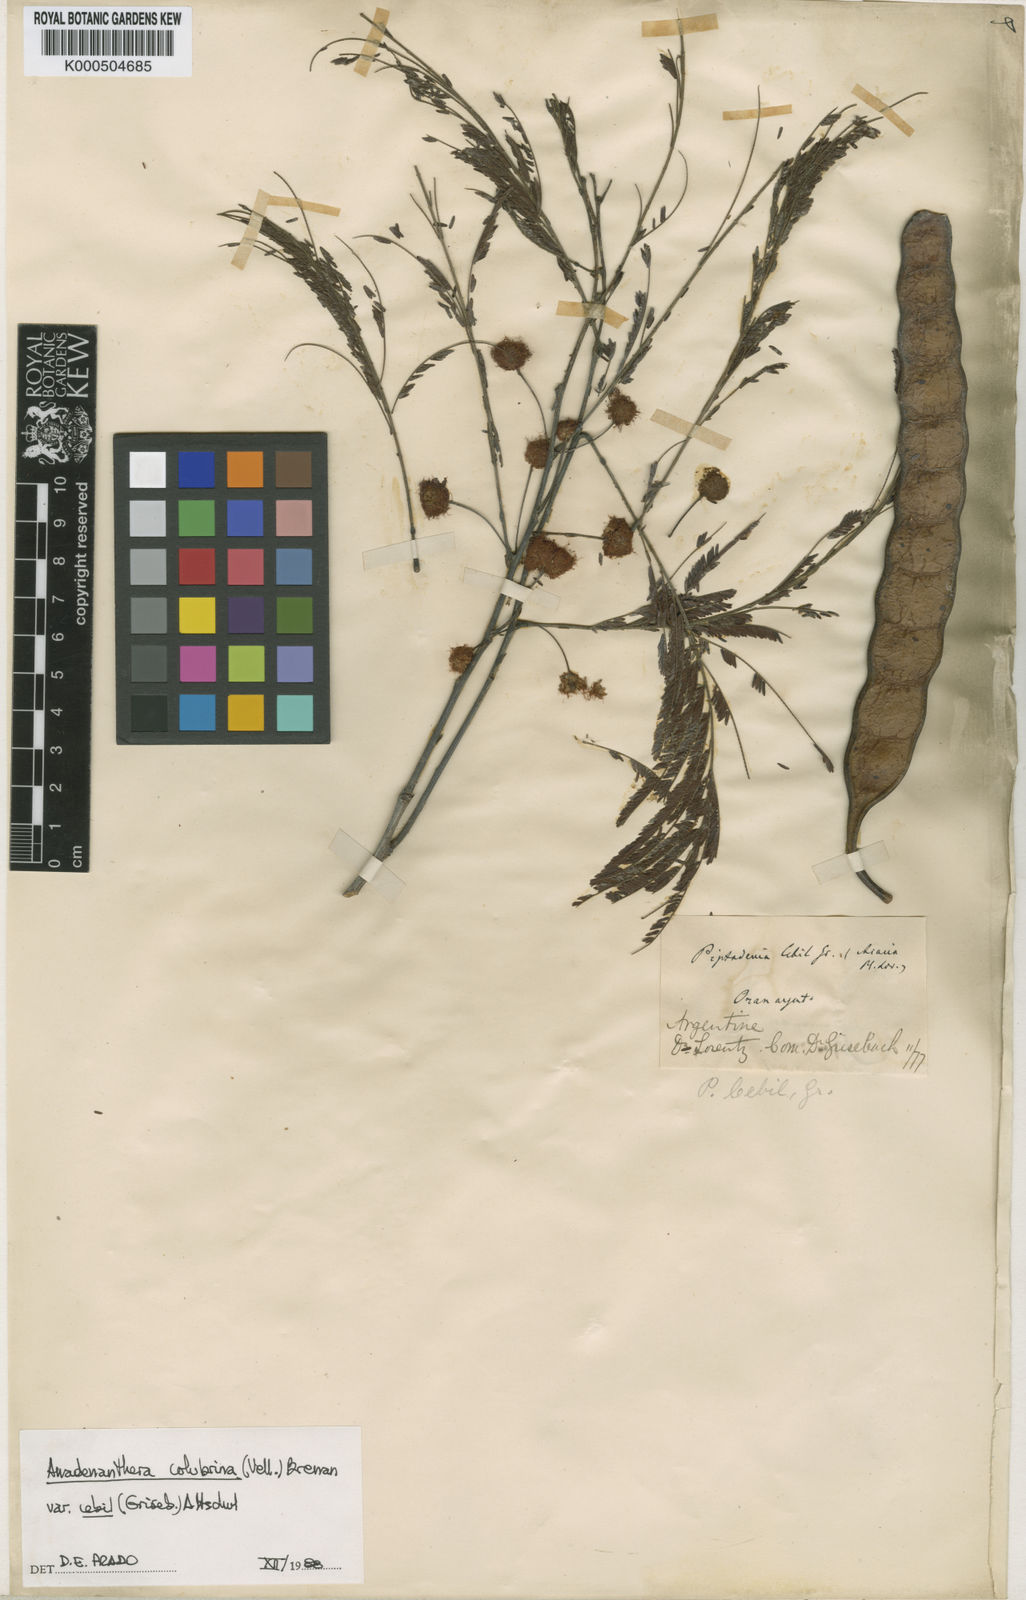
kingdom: Plantae
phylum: Tracheophyta
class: Magnoliopsida
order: Fabales
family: Fabaceae
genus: Anadenanthera
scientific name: Anadenanthera colubrina
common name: Curupay
